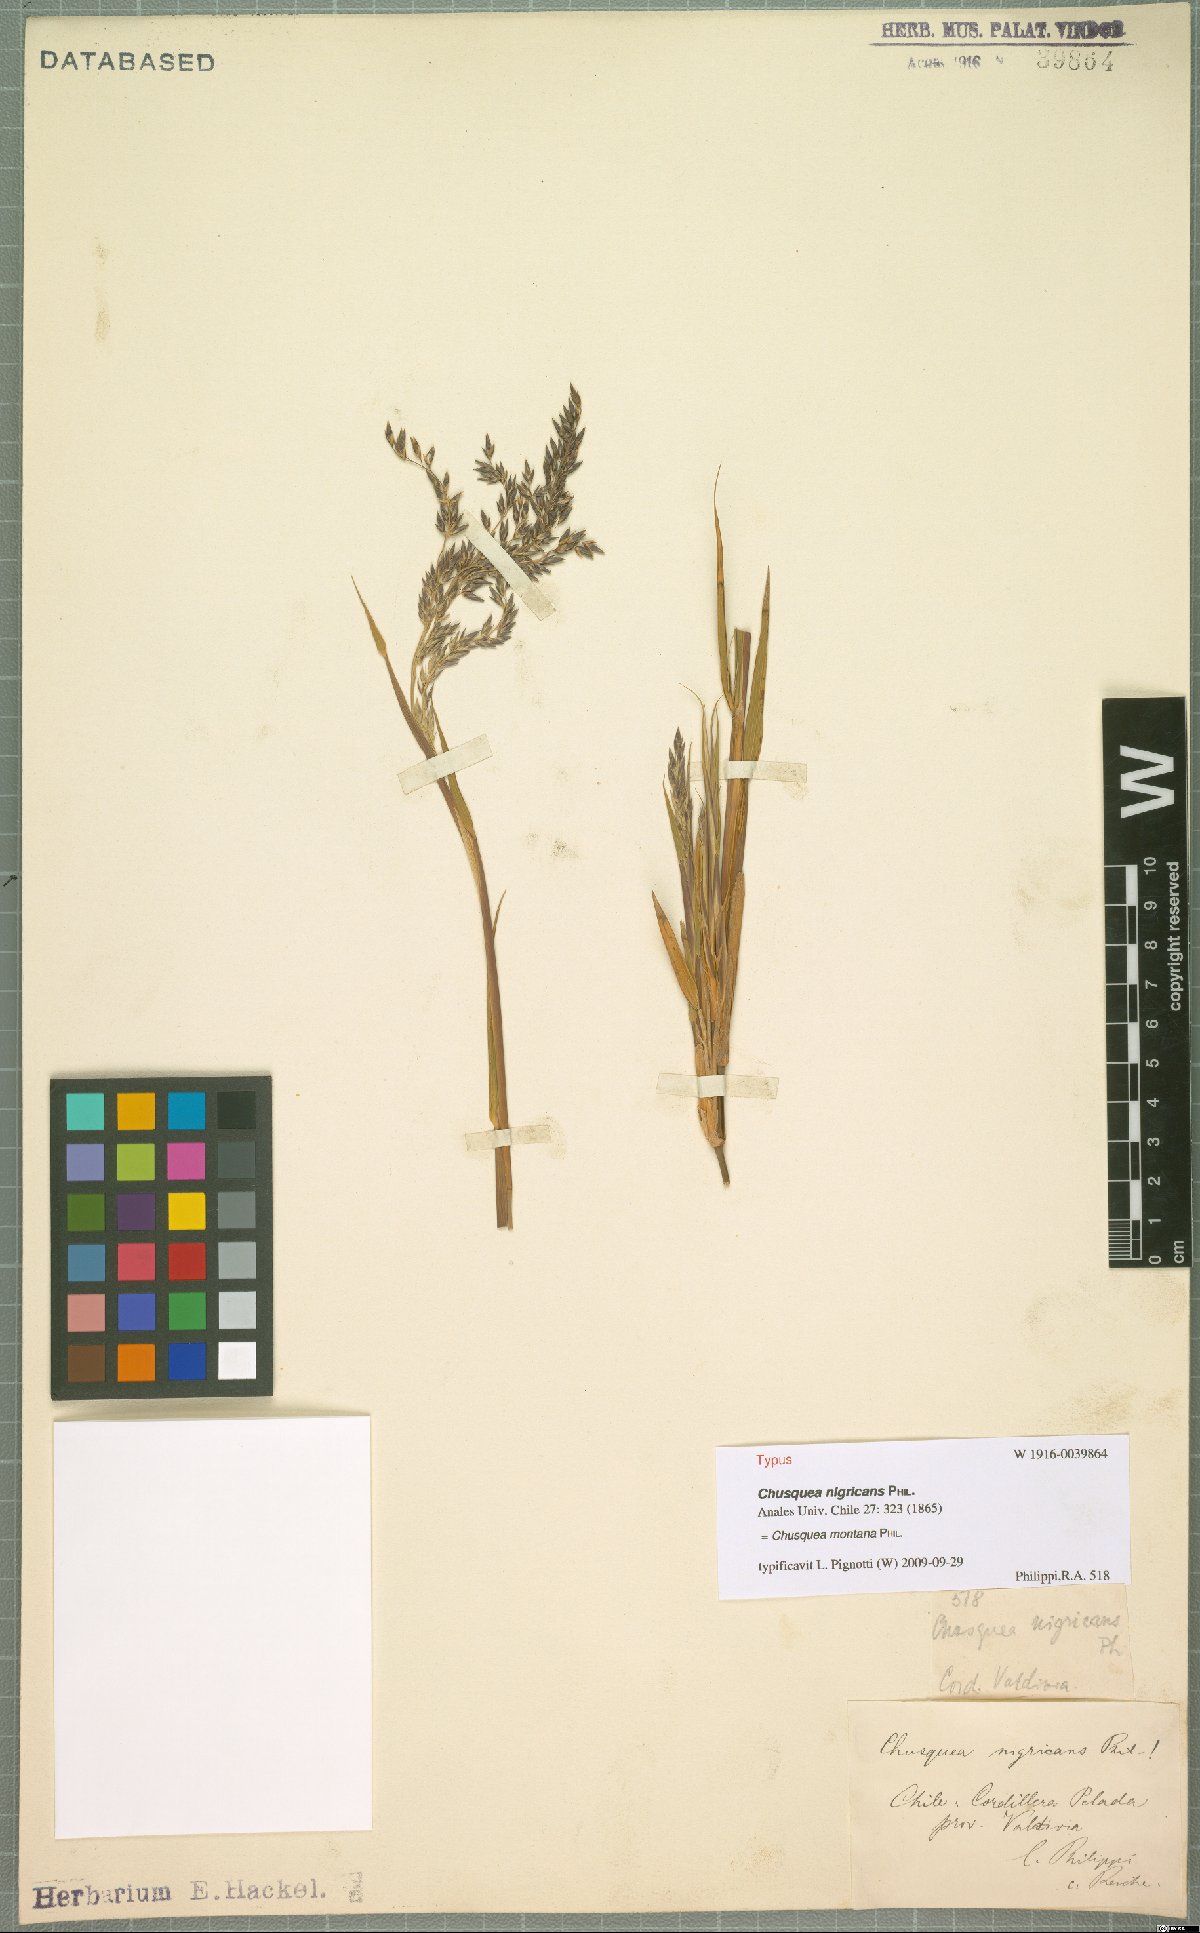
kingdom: Plantae
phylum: Tracheophyta
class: Liliopsida
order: Poales
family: Poaceae
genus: Chusquea
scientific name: Chusquea montana
